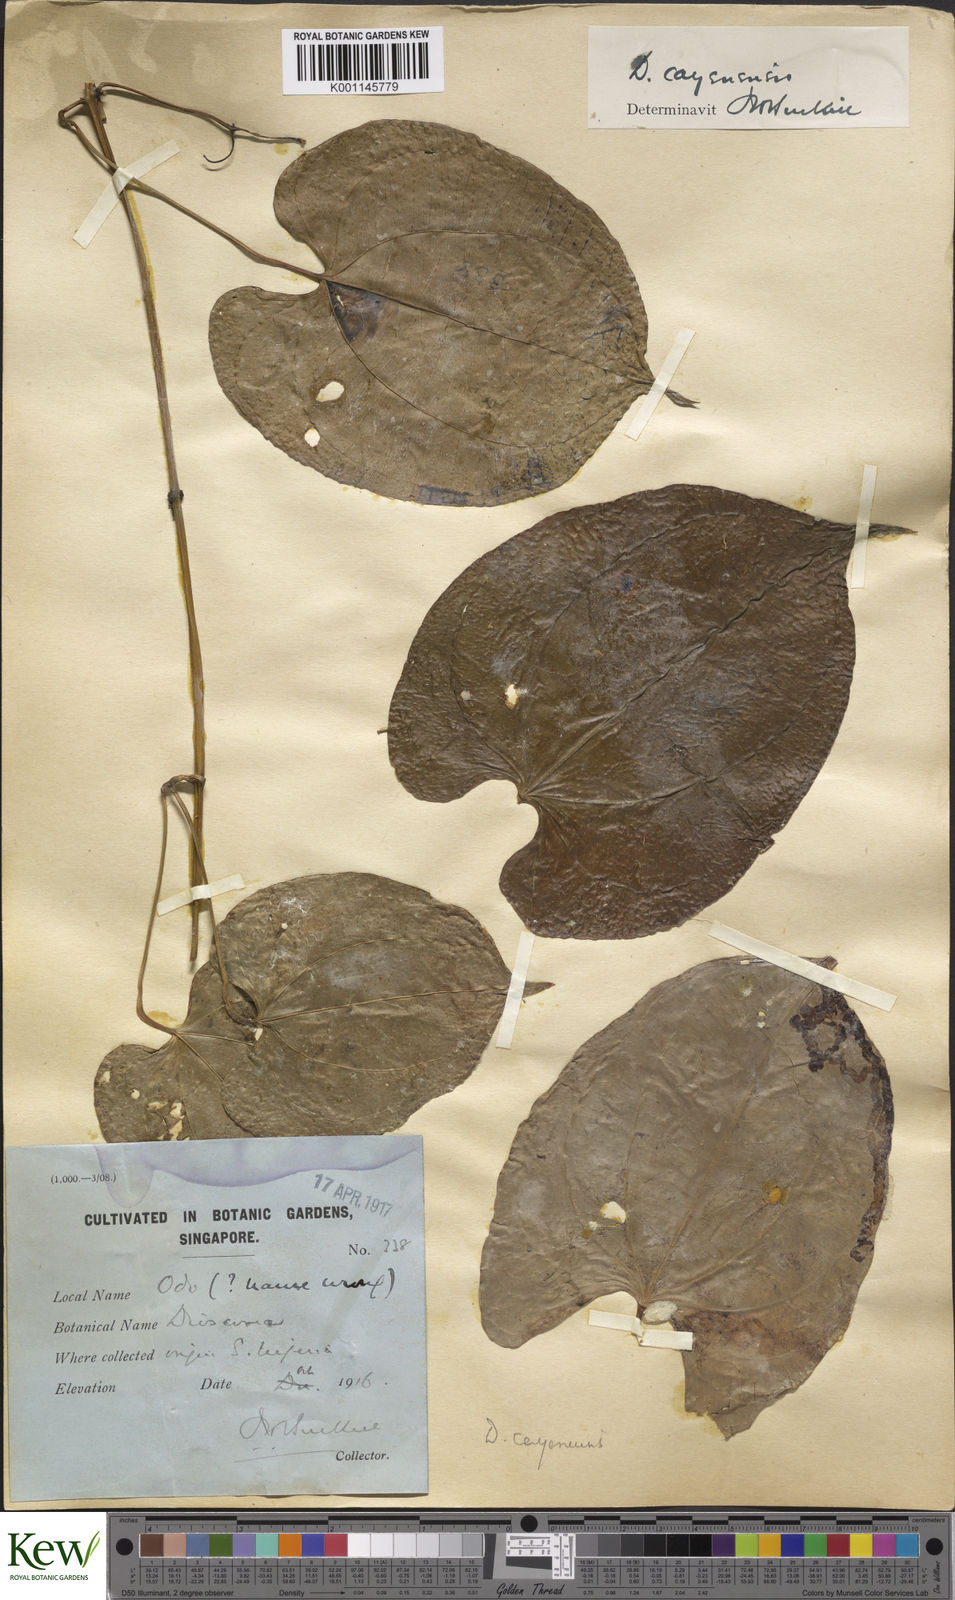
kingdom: Plantae
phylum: Tracheophyta
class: Liliopsida
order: Dioscoreales
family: Dioscoreaceae
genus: Dioscorea
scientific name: Dioscorea cayenensis
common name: Attoto yam
